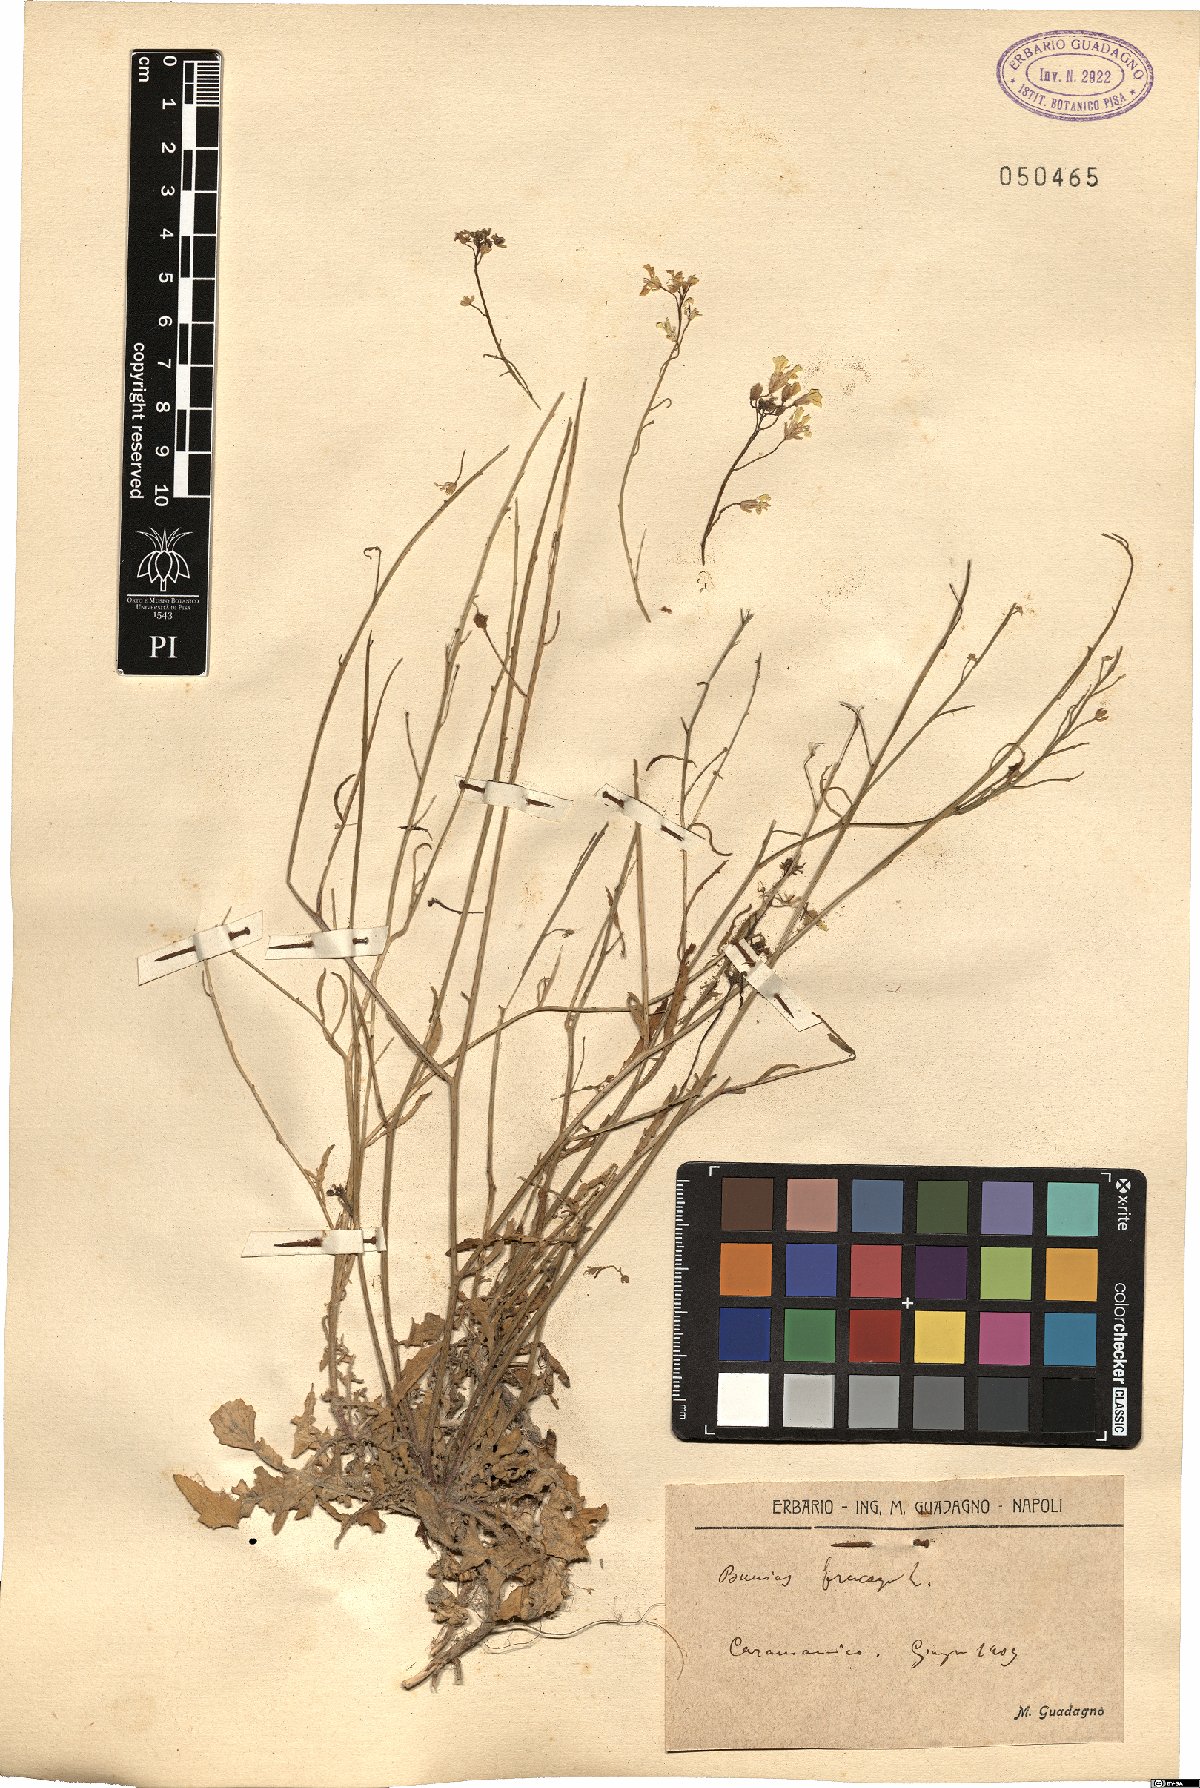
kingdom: Plantae
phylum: Tracheophyta
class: Magnoliopsida
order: Brassicales
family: Brassicaceae
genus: Bunias
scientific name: Bunias erucago
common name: Southern warty-cabbage
